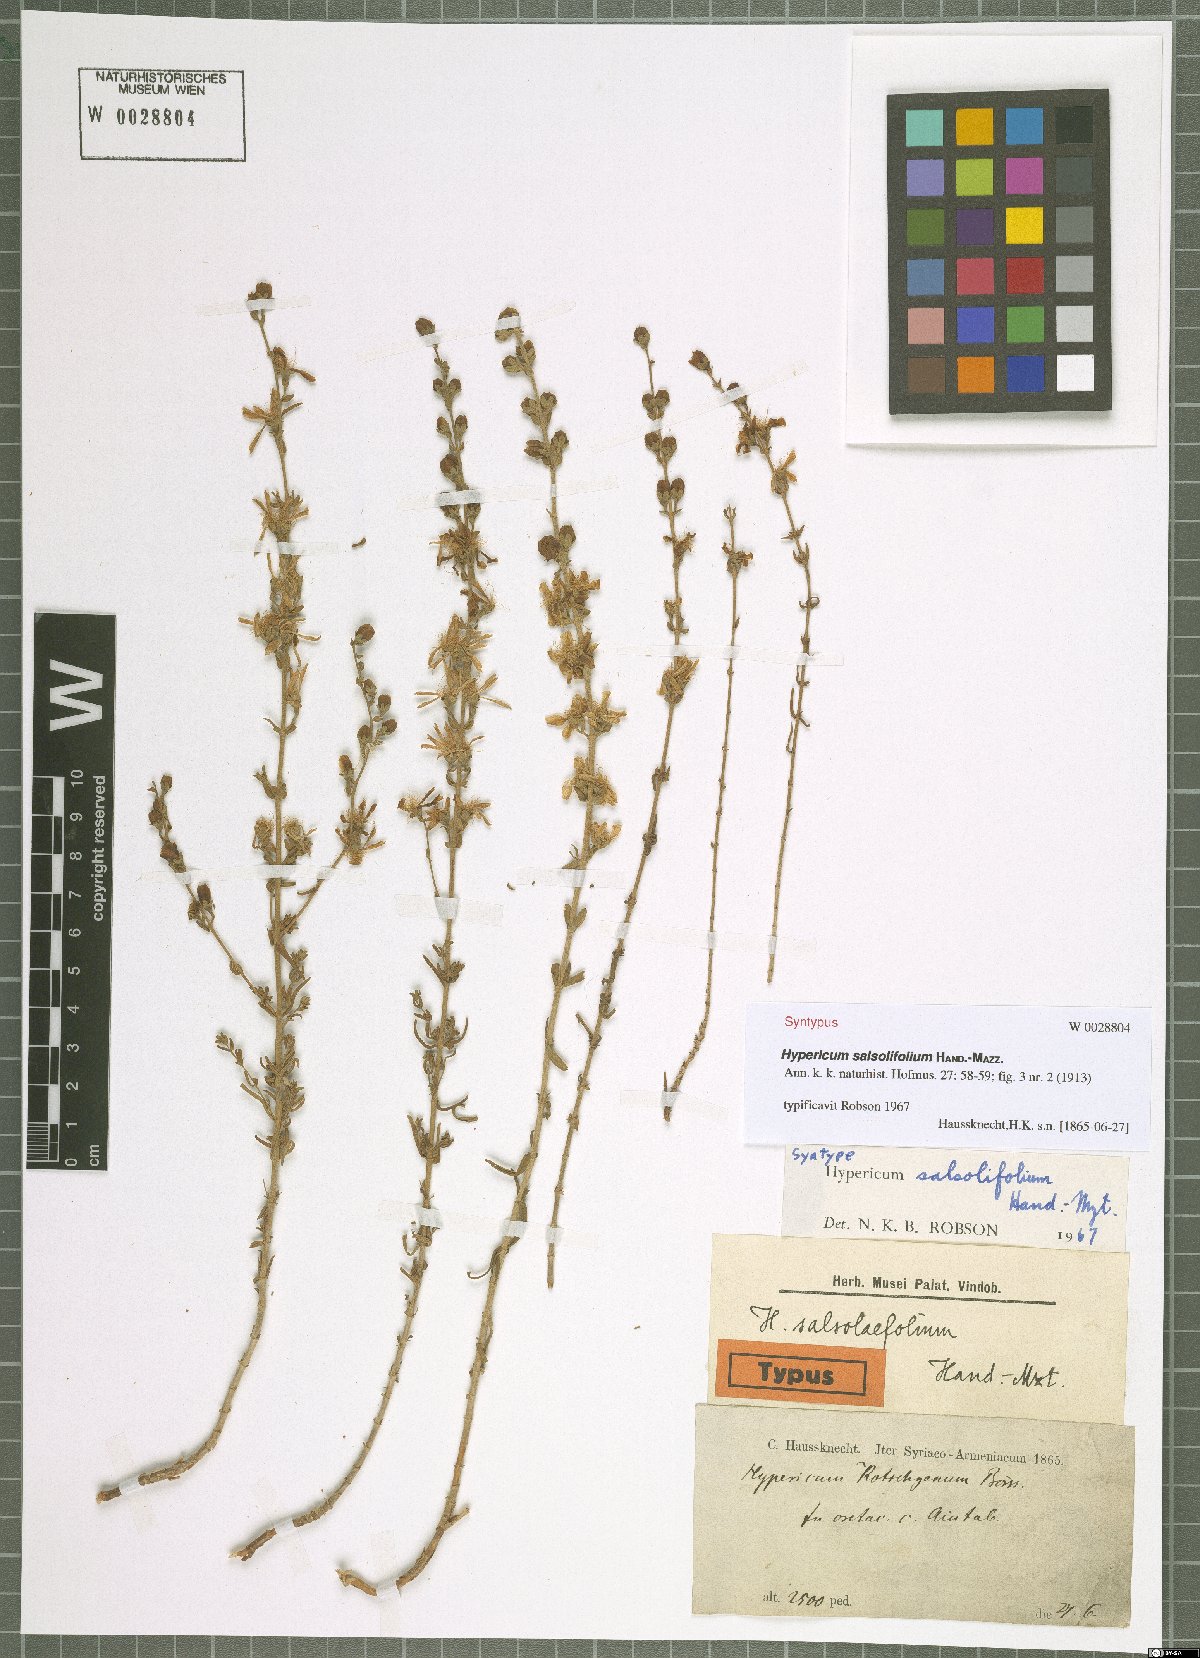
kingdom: Plantae
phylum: Tracheophyta
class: Magnoliopsida
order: Malpighiales
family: Hypericaceae
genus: Hypericum
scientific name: Hypericum salsolifolium
